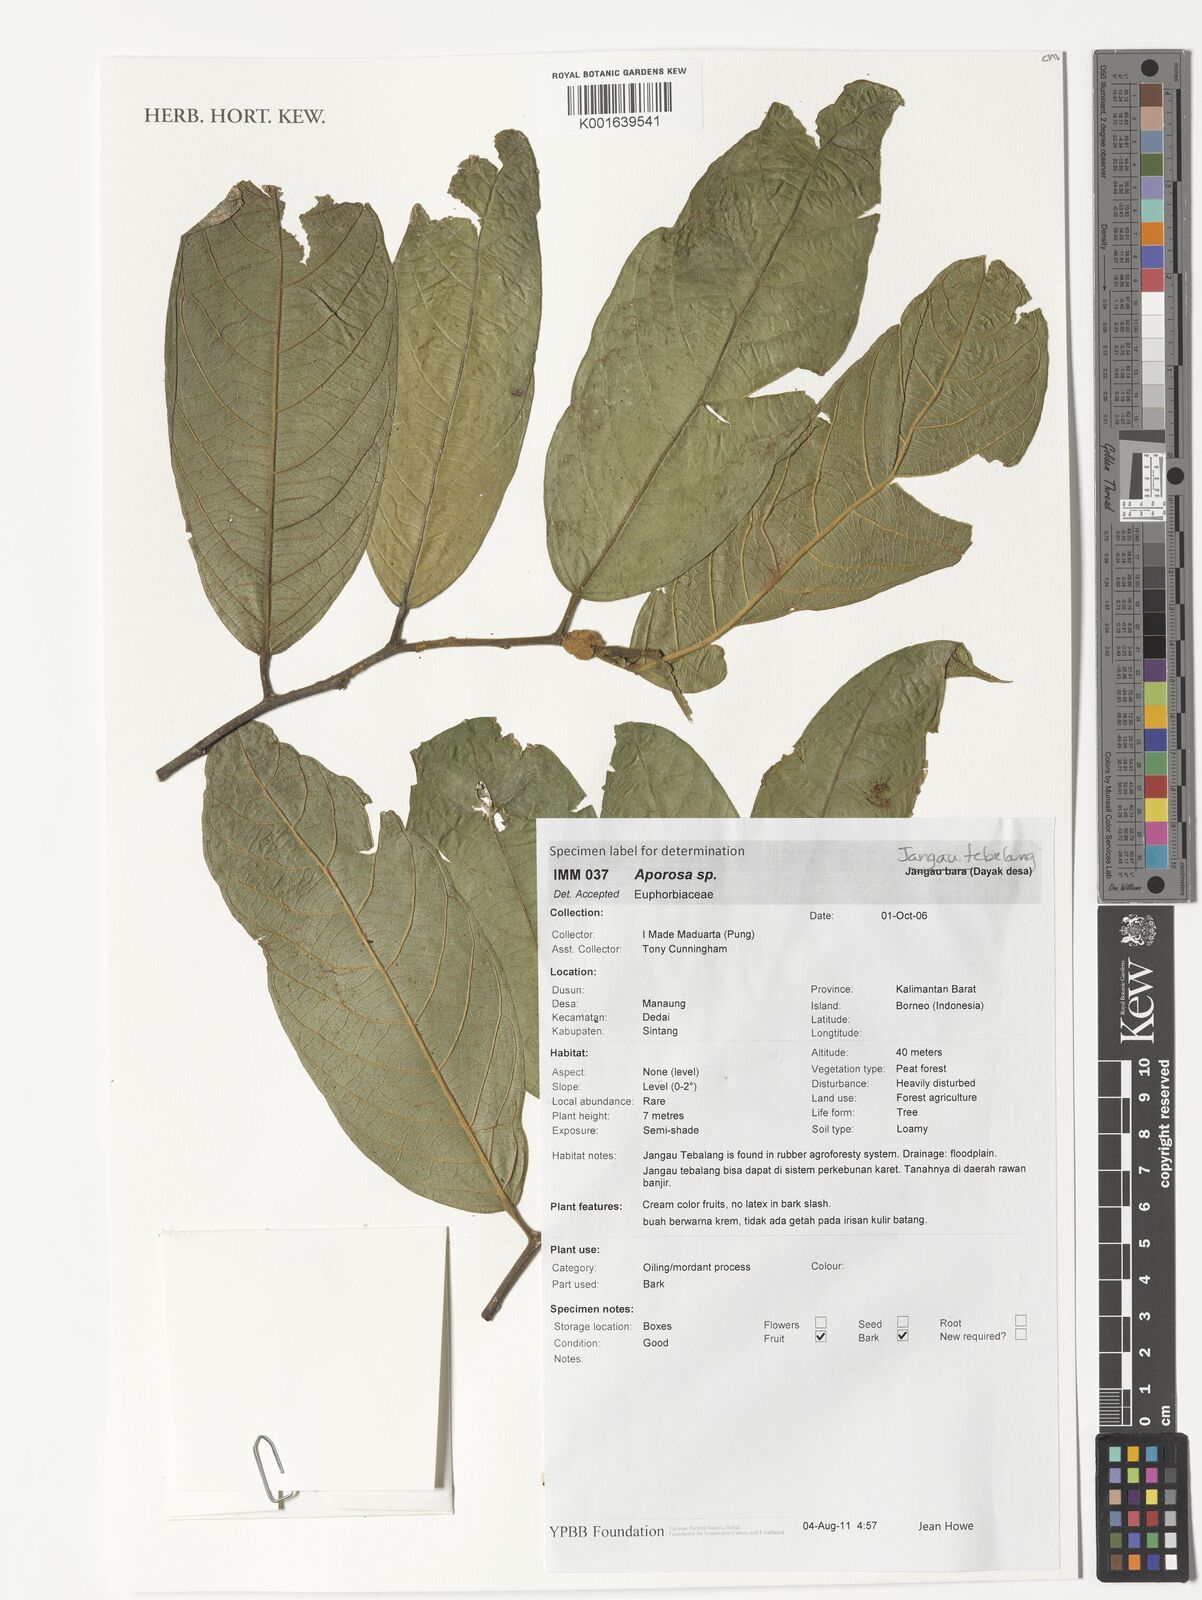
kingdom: Plantae
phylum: Tracheophyta
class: Magnoliopsida
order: Malpighiales
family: Phyllanthaceae
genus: Aporosa
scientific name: Aporosa
